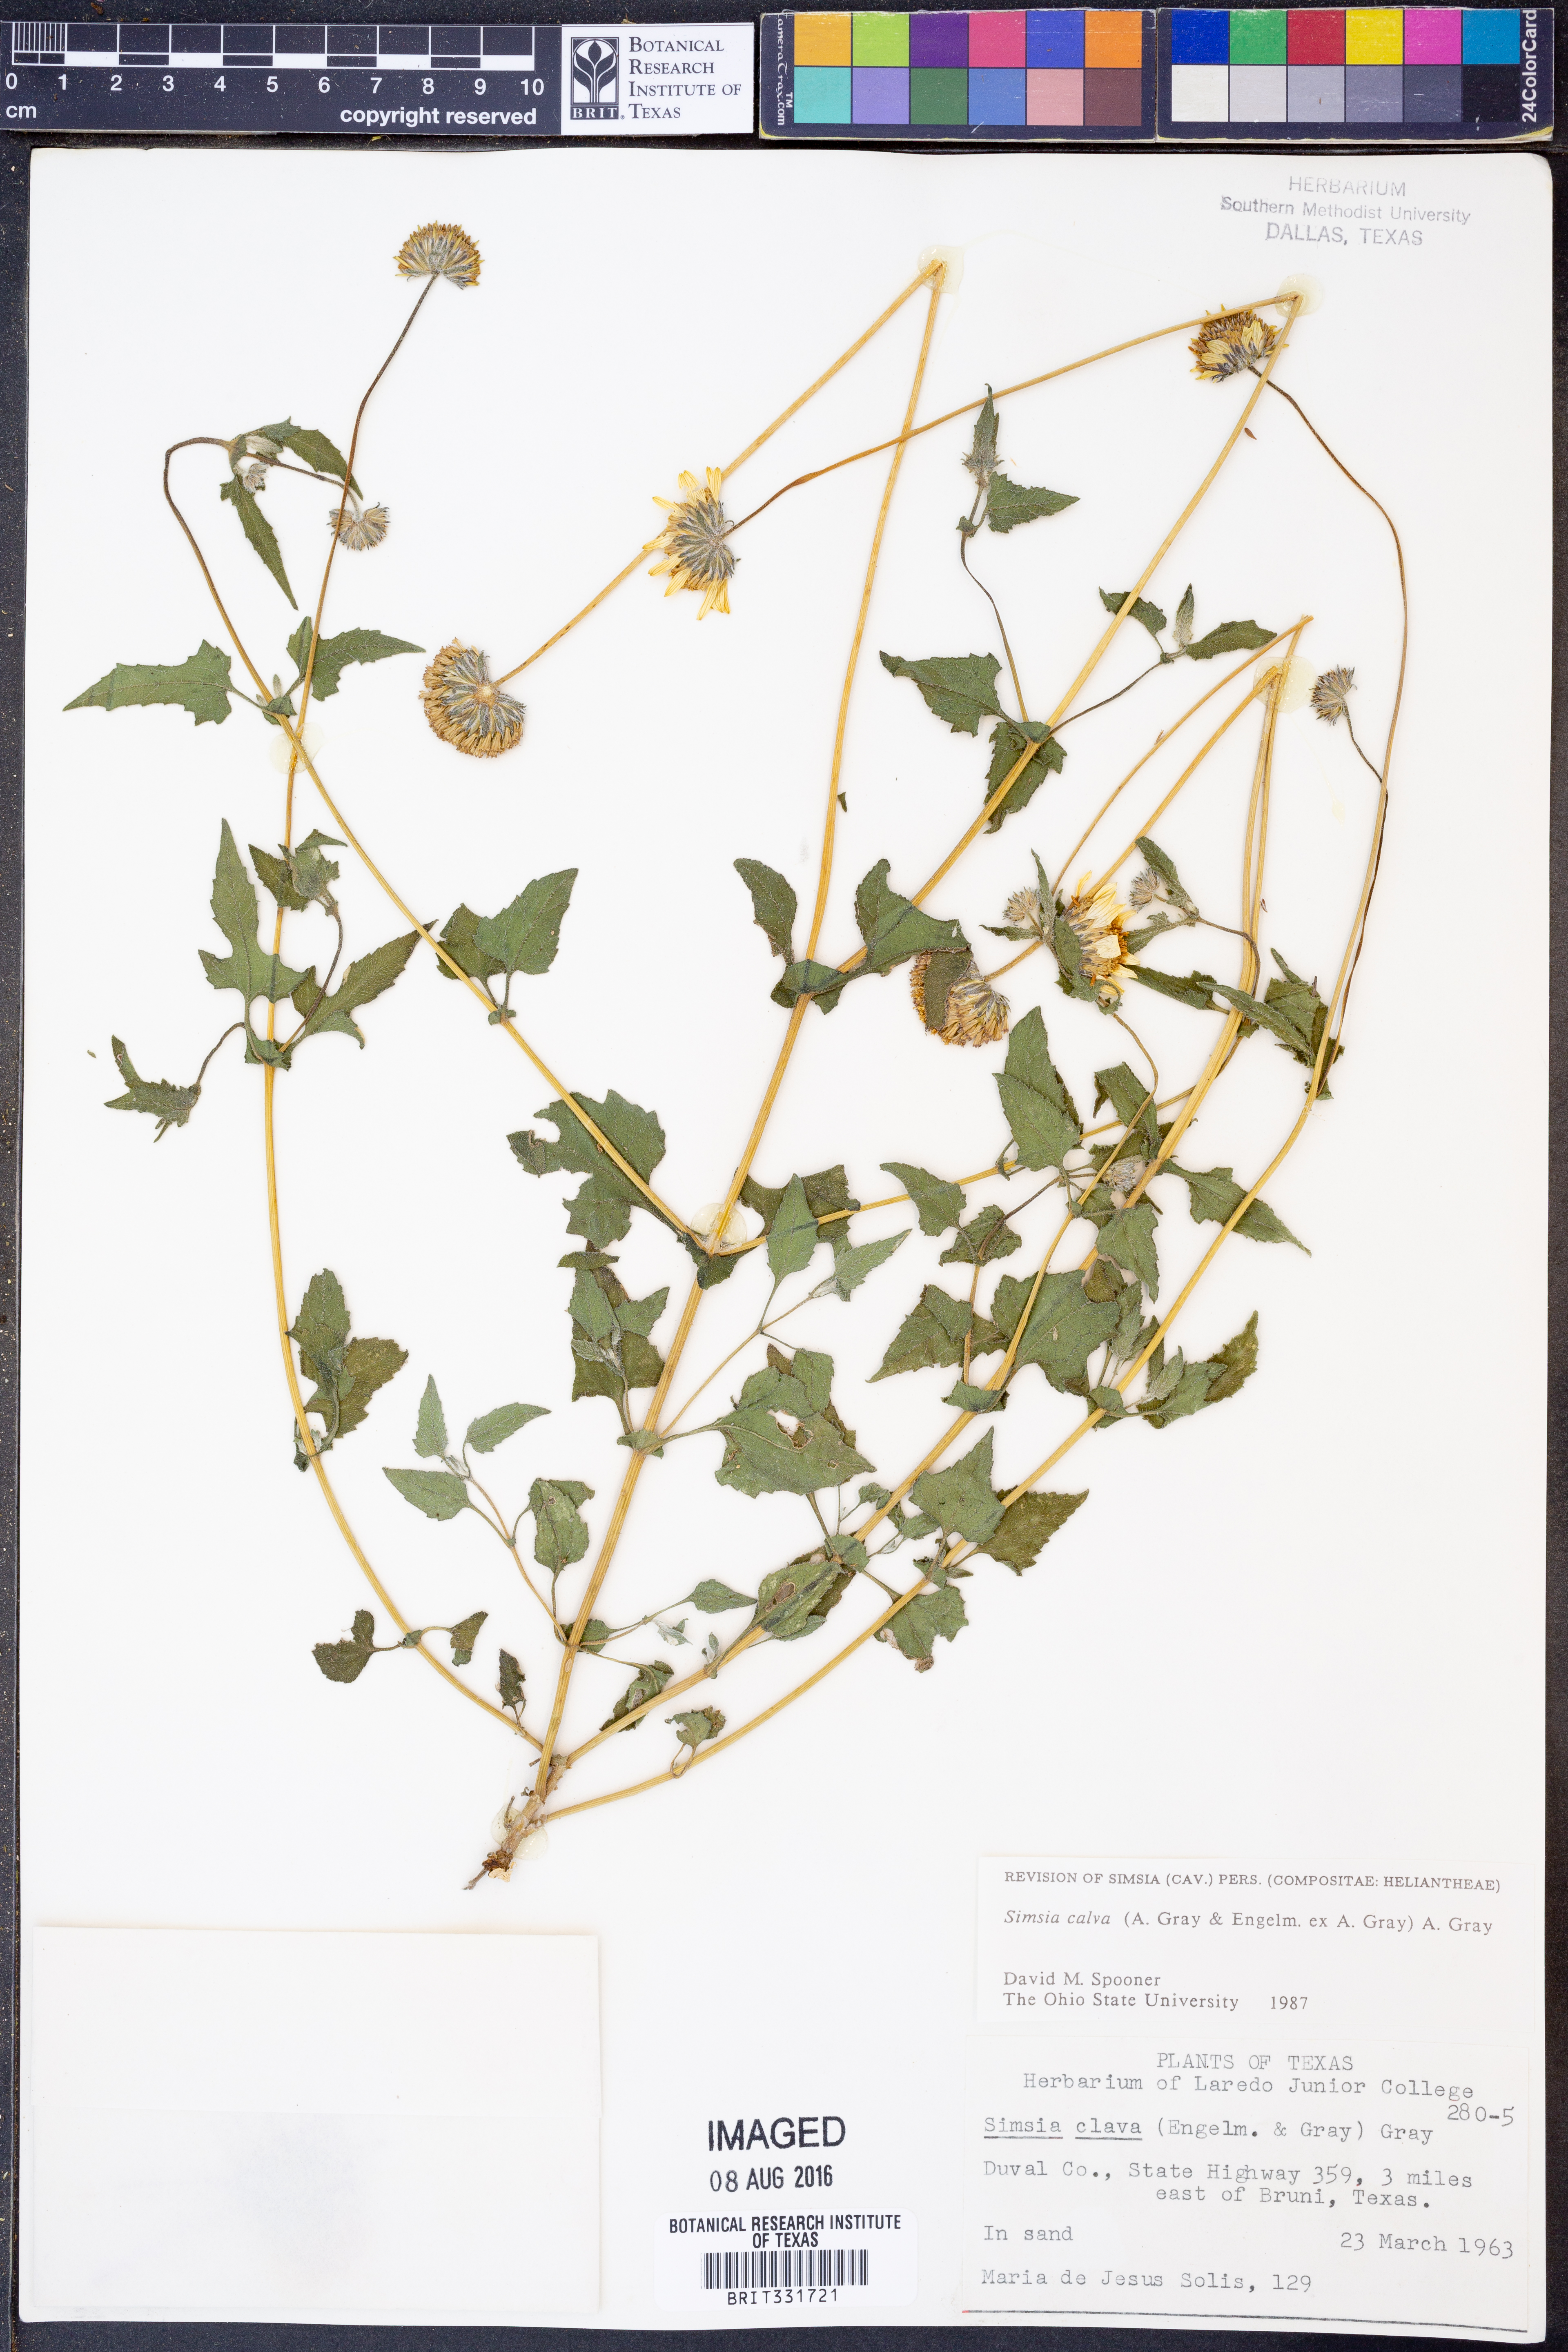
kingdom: Plantae
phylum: Tracheophyta
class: Magnoliopsida
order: Asterales
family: Asteraceae
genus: Simsia
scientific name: Simsia calva
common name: Awnless bush-sunflower
